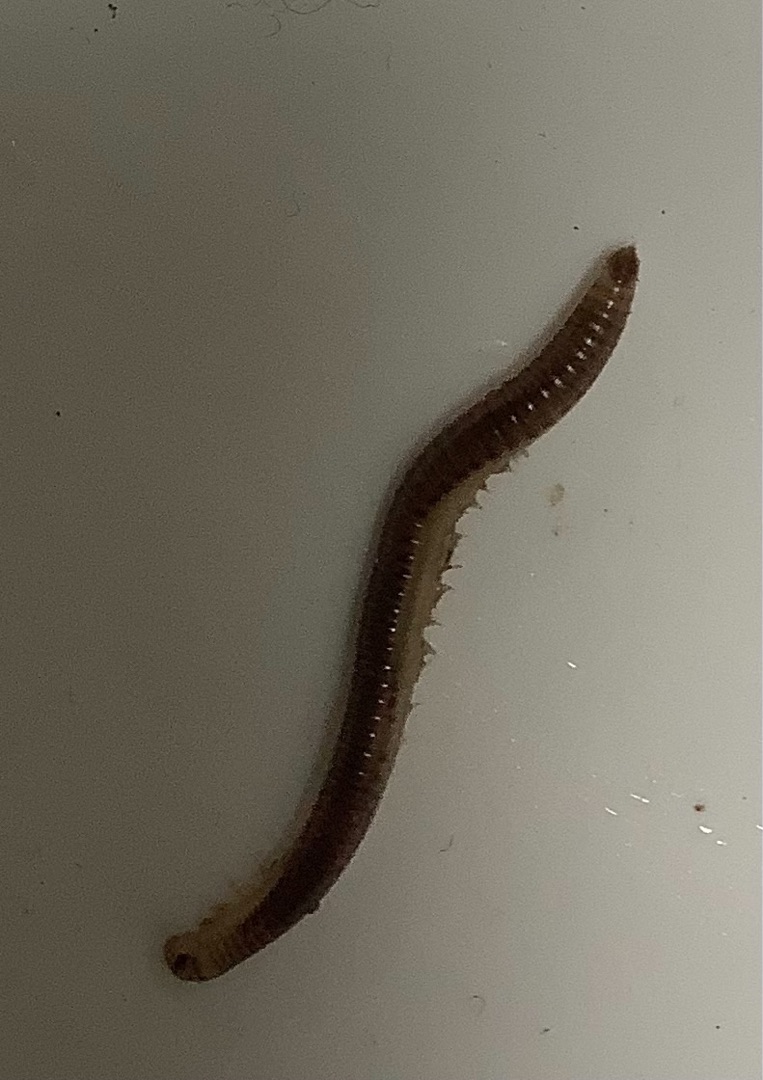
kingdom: Animalia
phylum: Arthropoda
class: Diplopoda
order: Julida
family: Julidae
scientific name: Julidae
